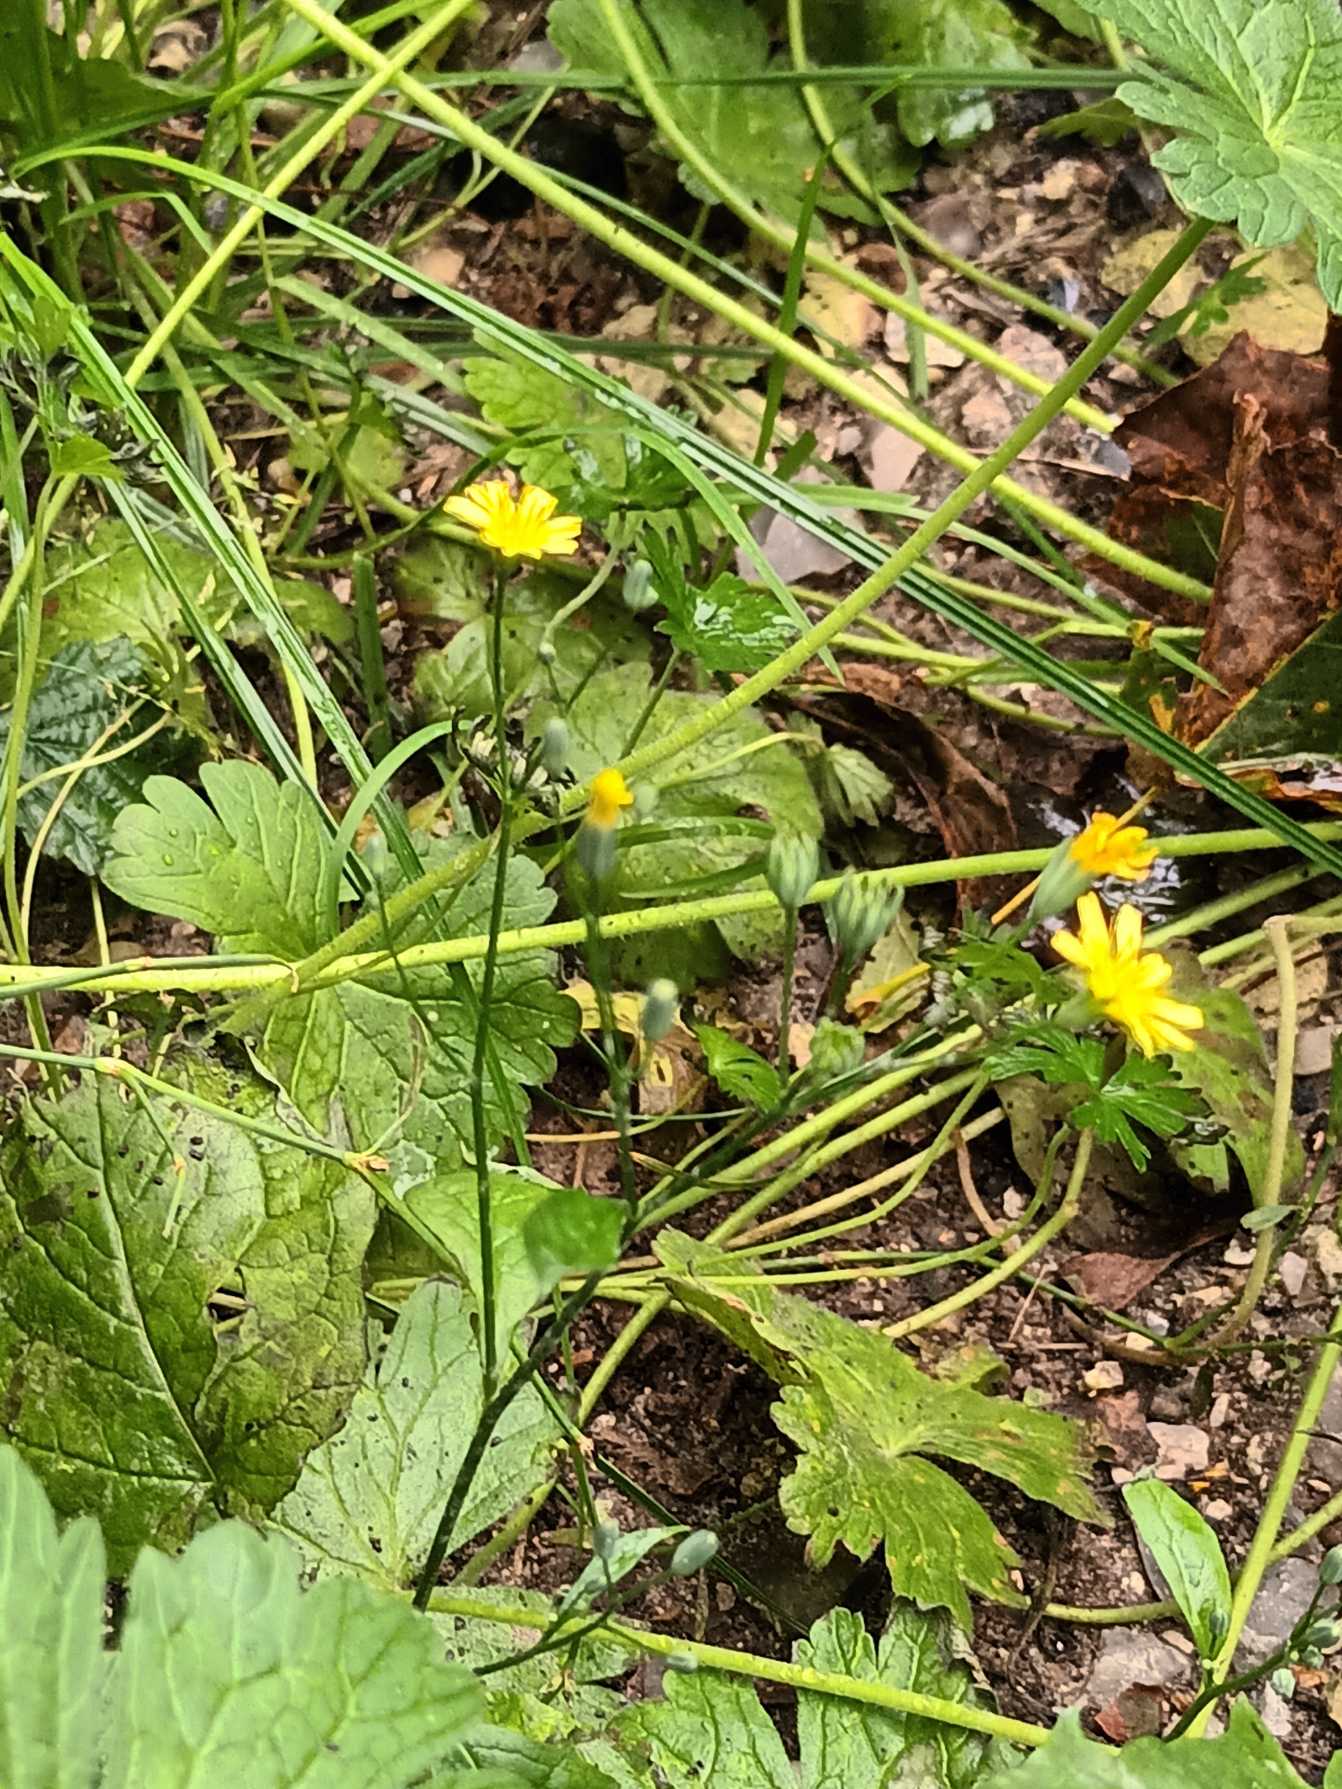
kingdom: Plantae
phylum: Tracheophyta
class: Magnoliopsida
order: Asterales
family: Asteraceae
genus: Lapsana
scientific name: Lapsana communis
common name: Haremad
